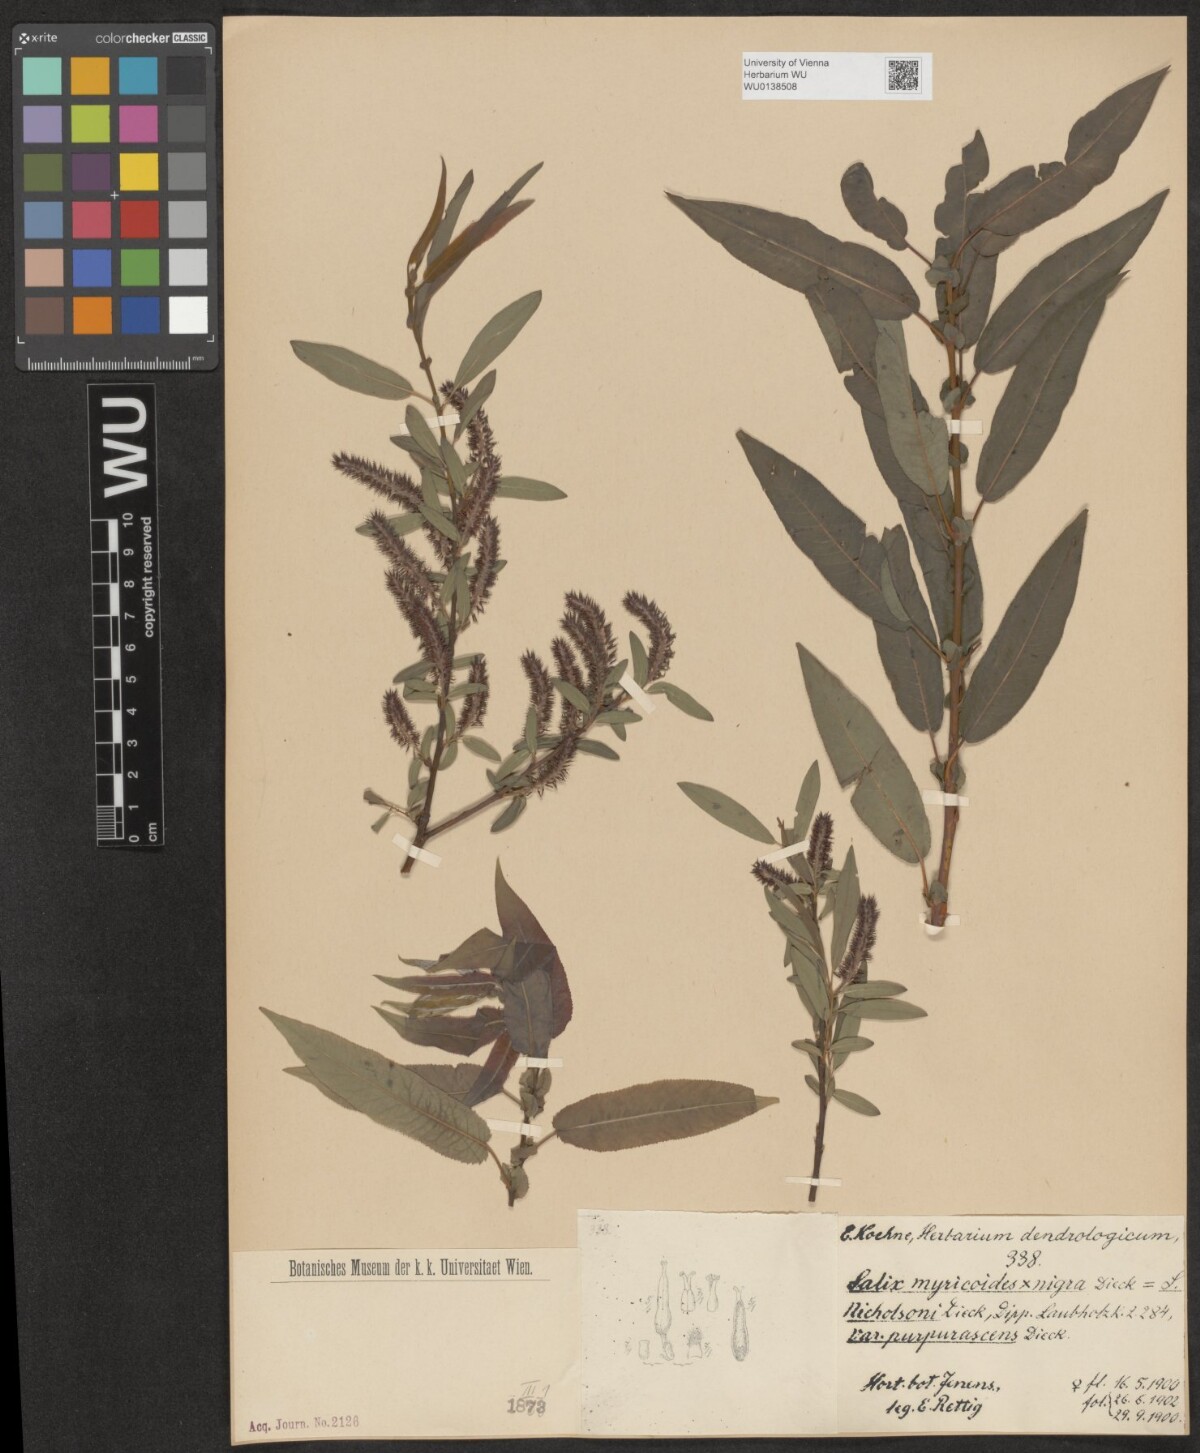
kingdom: Plantae
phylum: Tracheophyta
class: Magnoliopsida
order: Malpighiales
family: Salicaceae
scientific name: Salicaceae
